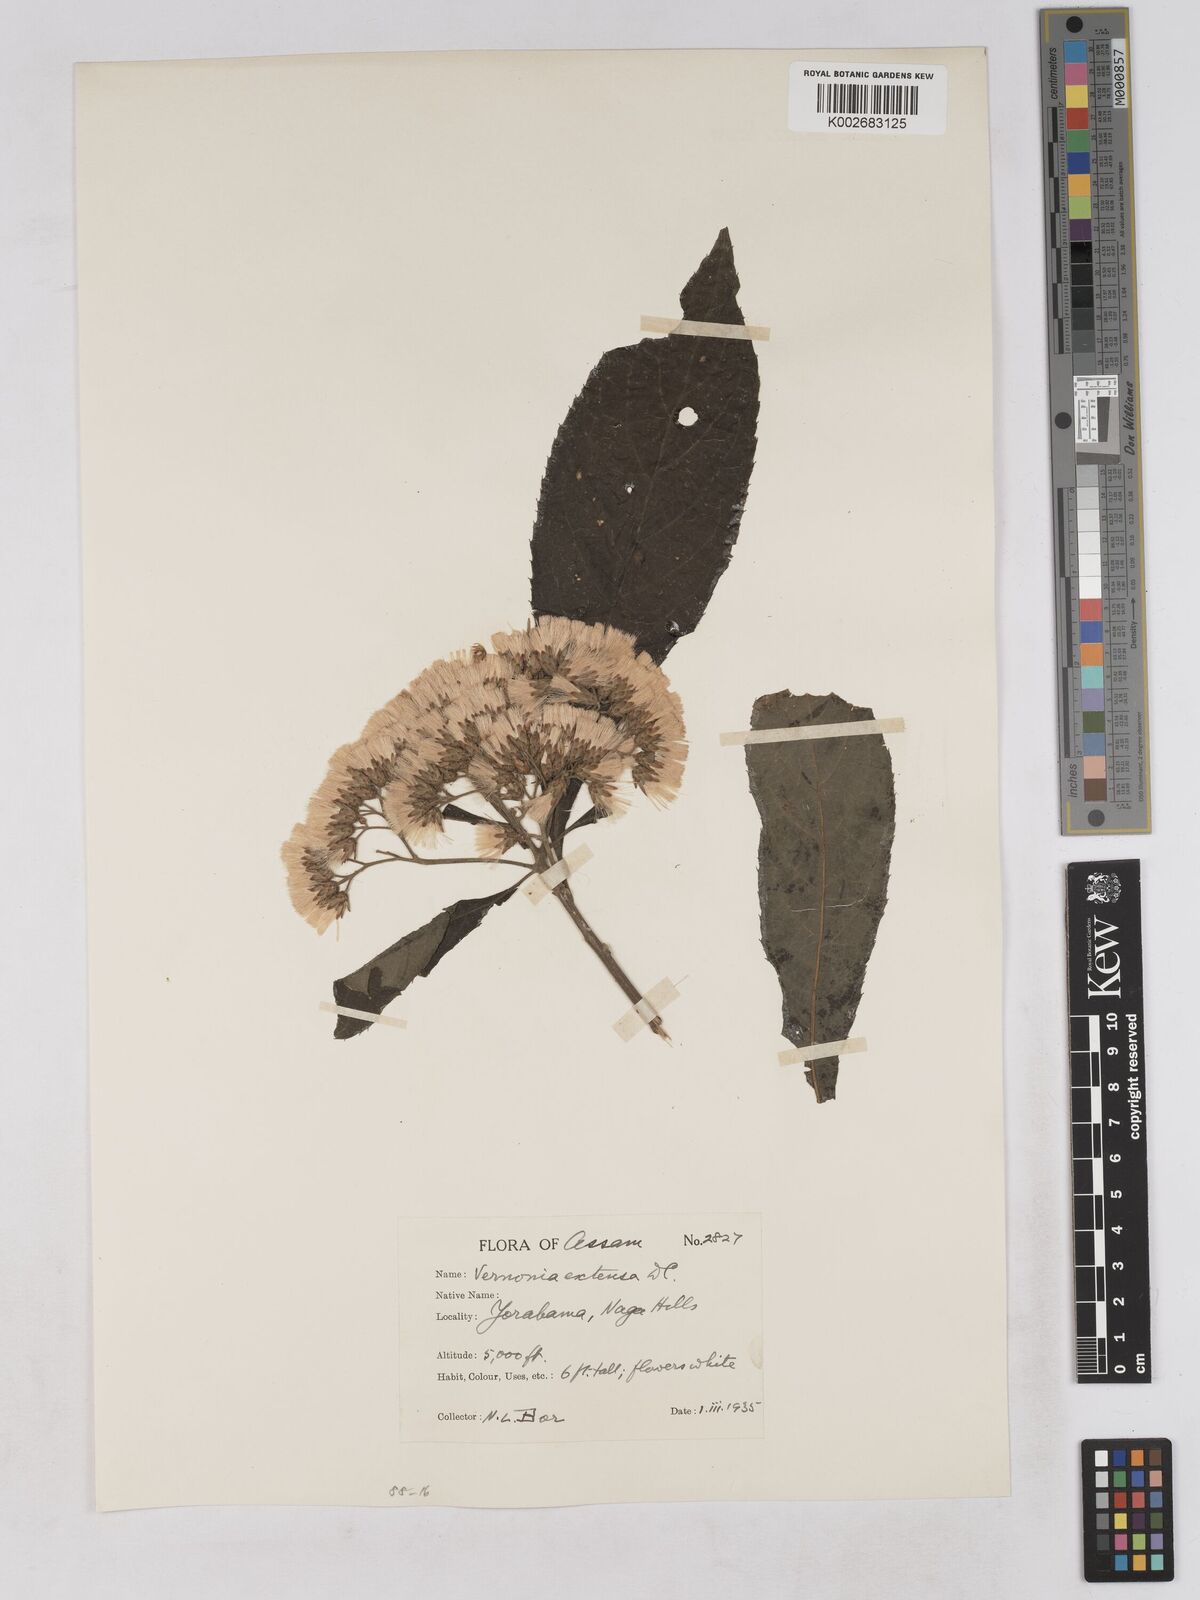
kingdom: Plantae
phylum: Tracheophyta
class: Magnoliopsida
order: Asterales
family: Asteraceae
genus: Gymnanthemum
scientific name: Gymnanthemum extensum
